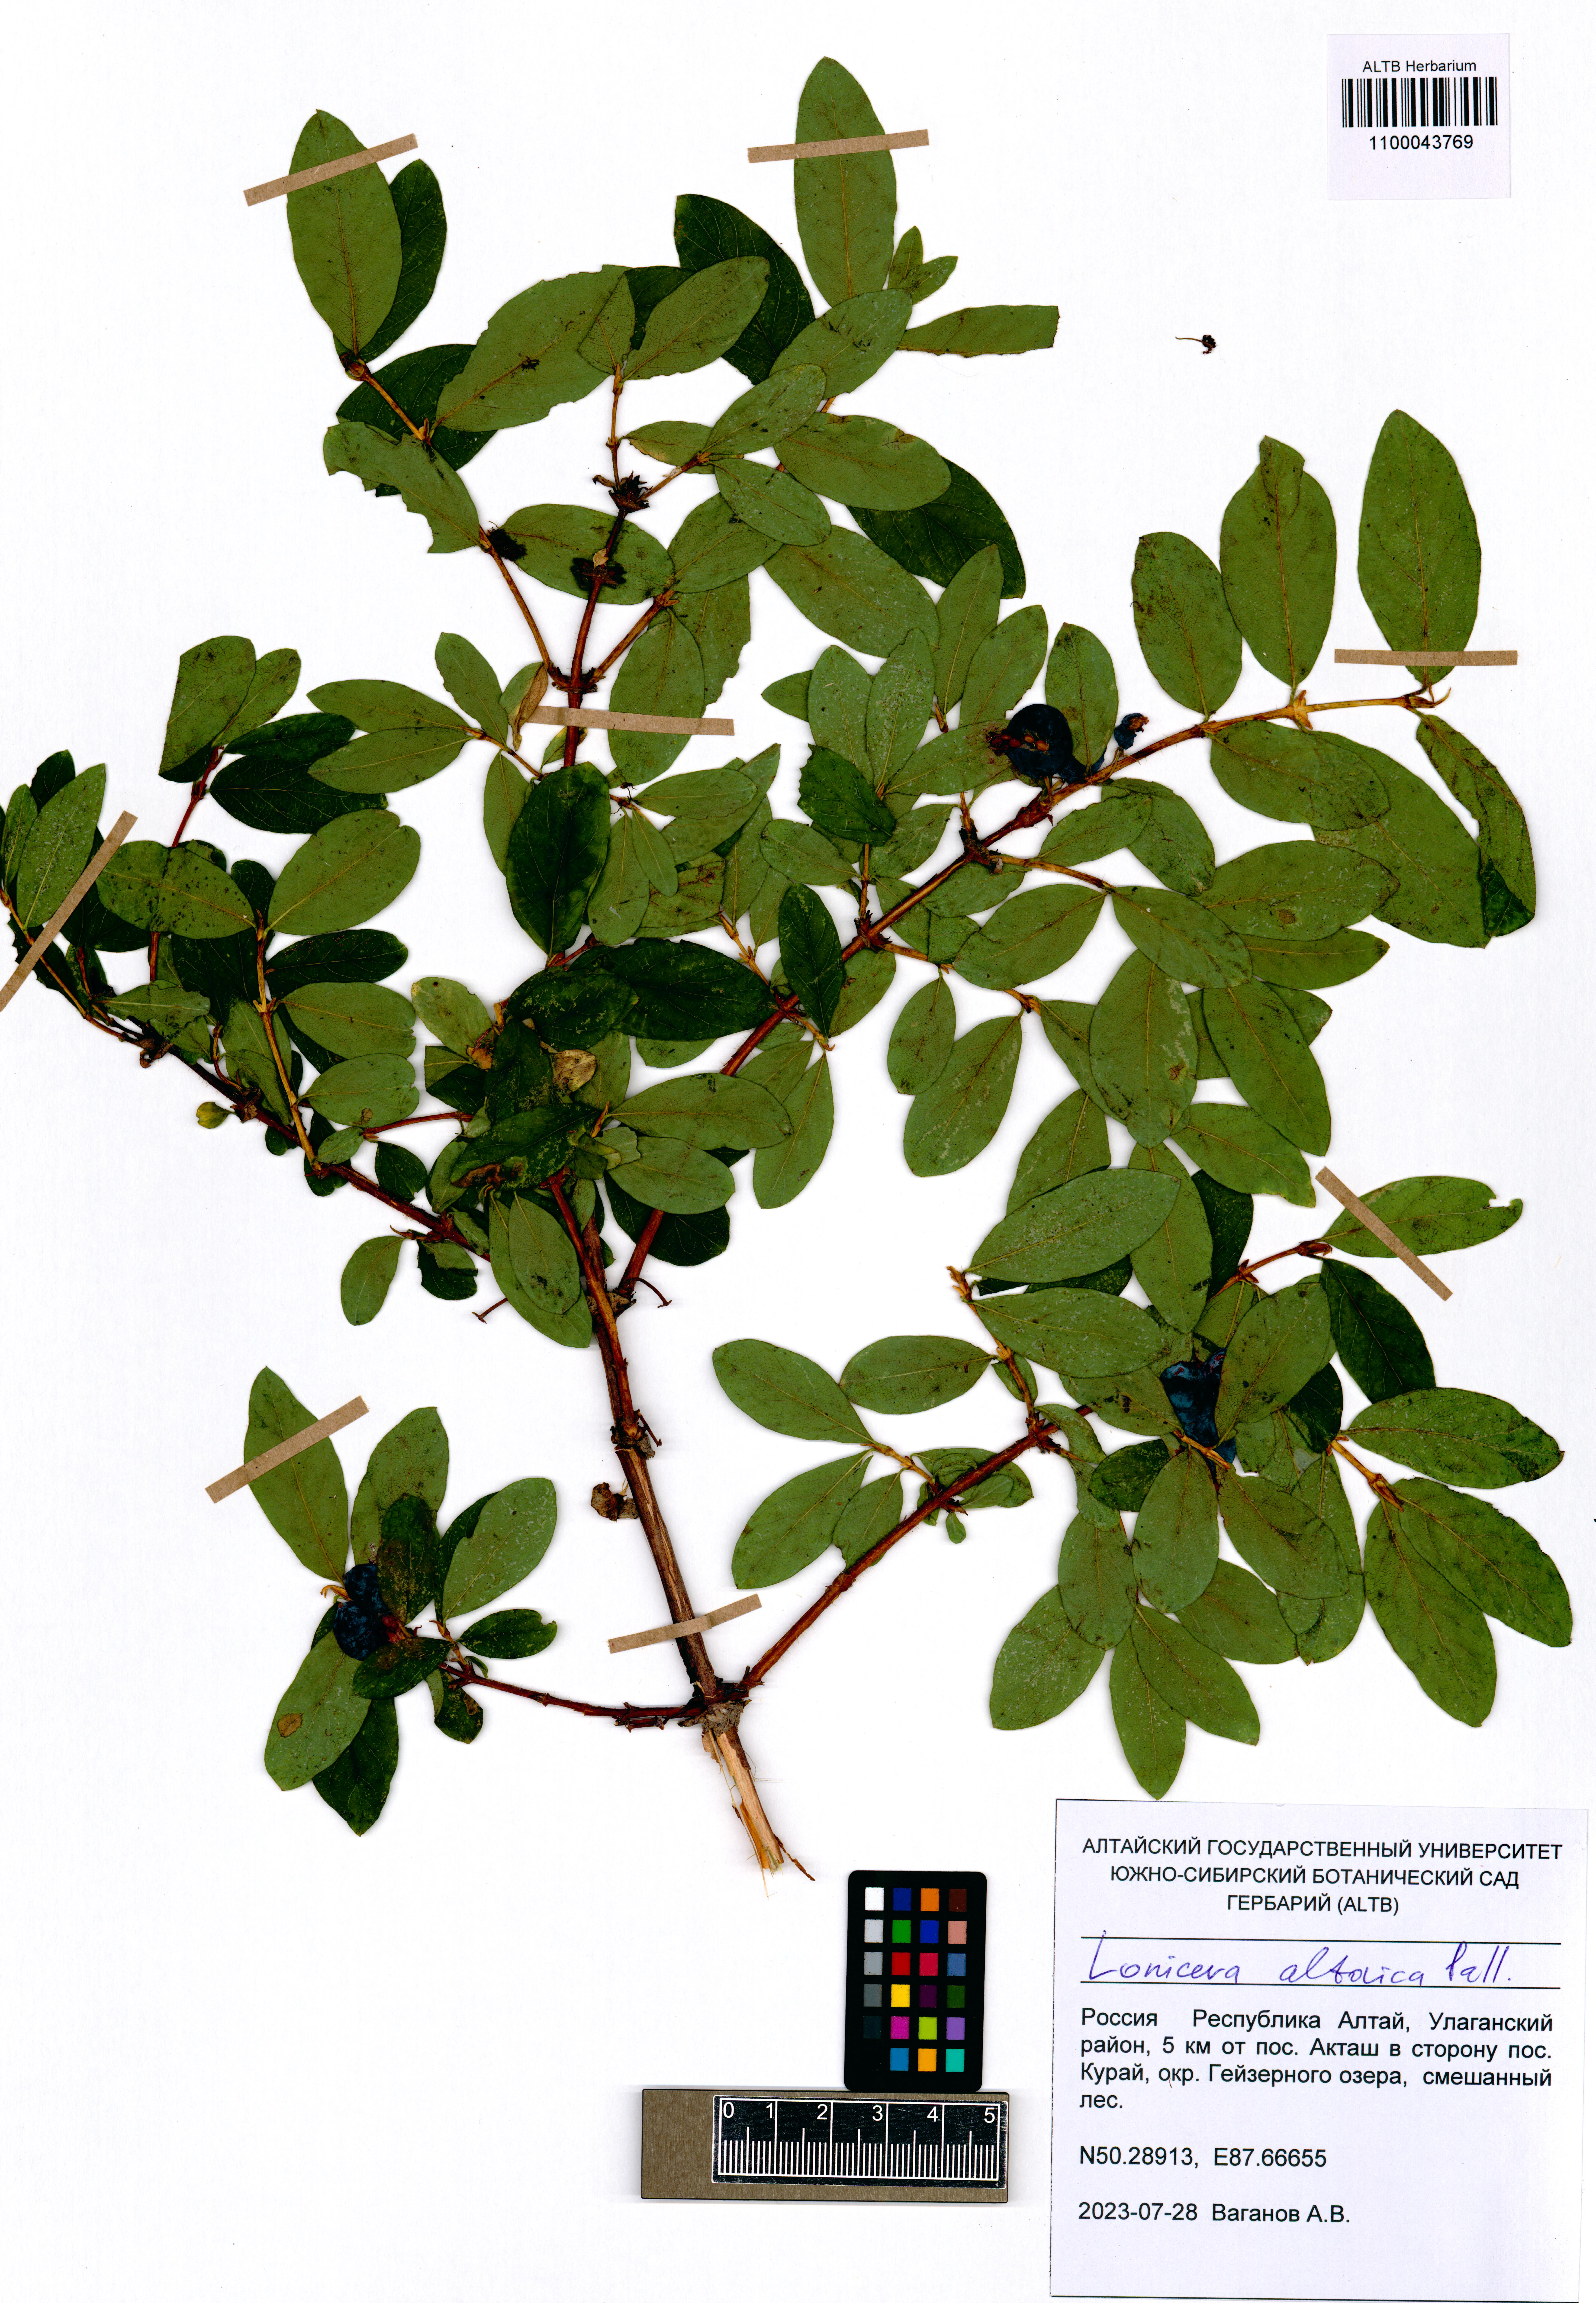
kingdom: Plantae
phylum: Tracheophyta
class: Magnoliopsida
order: Dipsacales
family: Caprifoliaceae
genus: Lonicera
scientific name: Lonicera caerulea
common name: Blue honeysuckle
